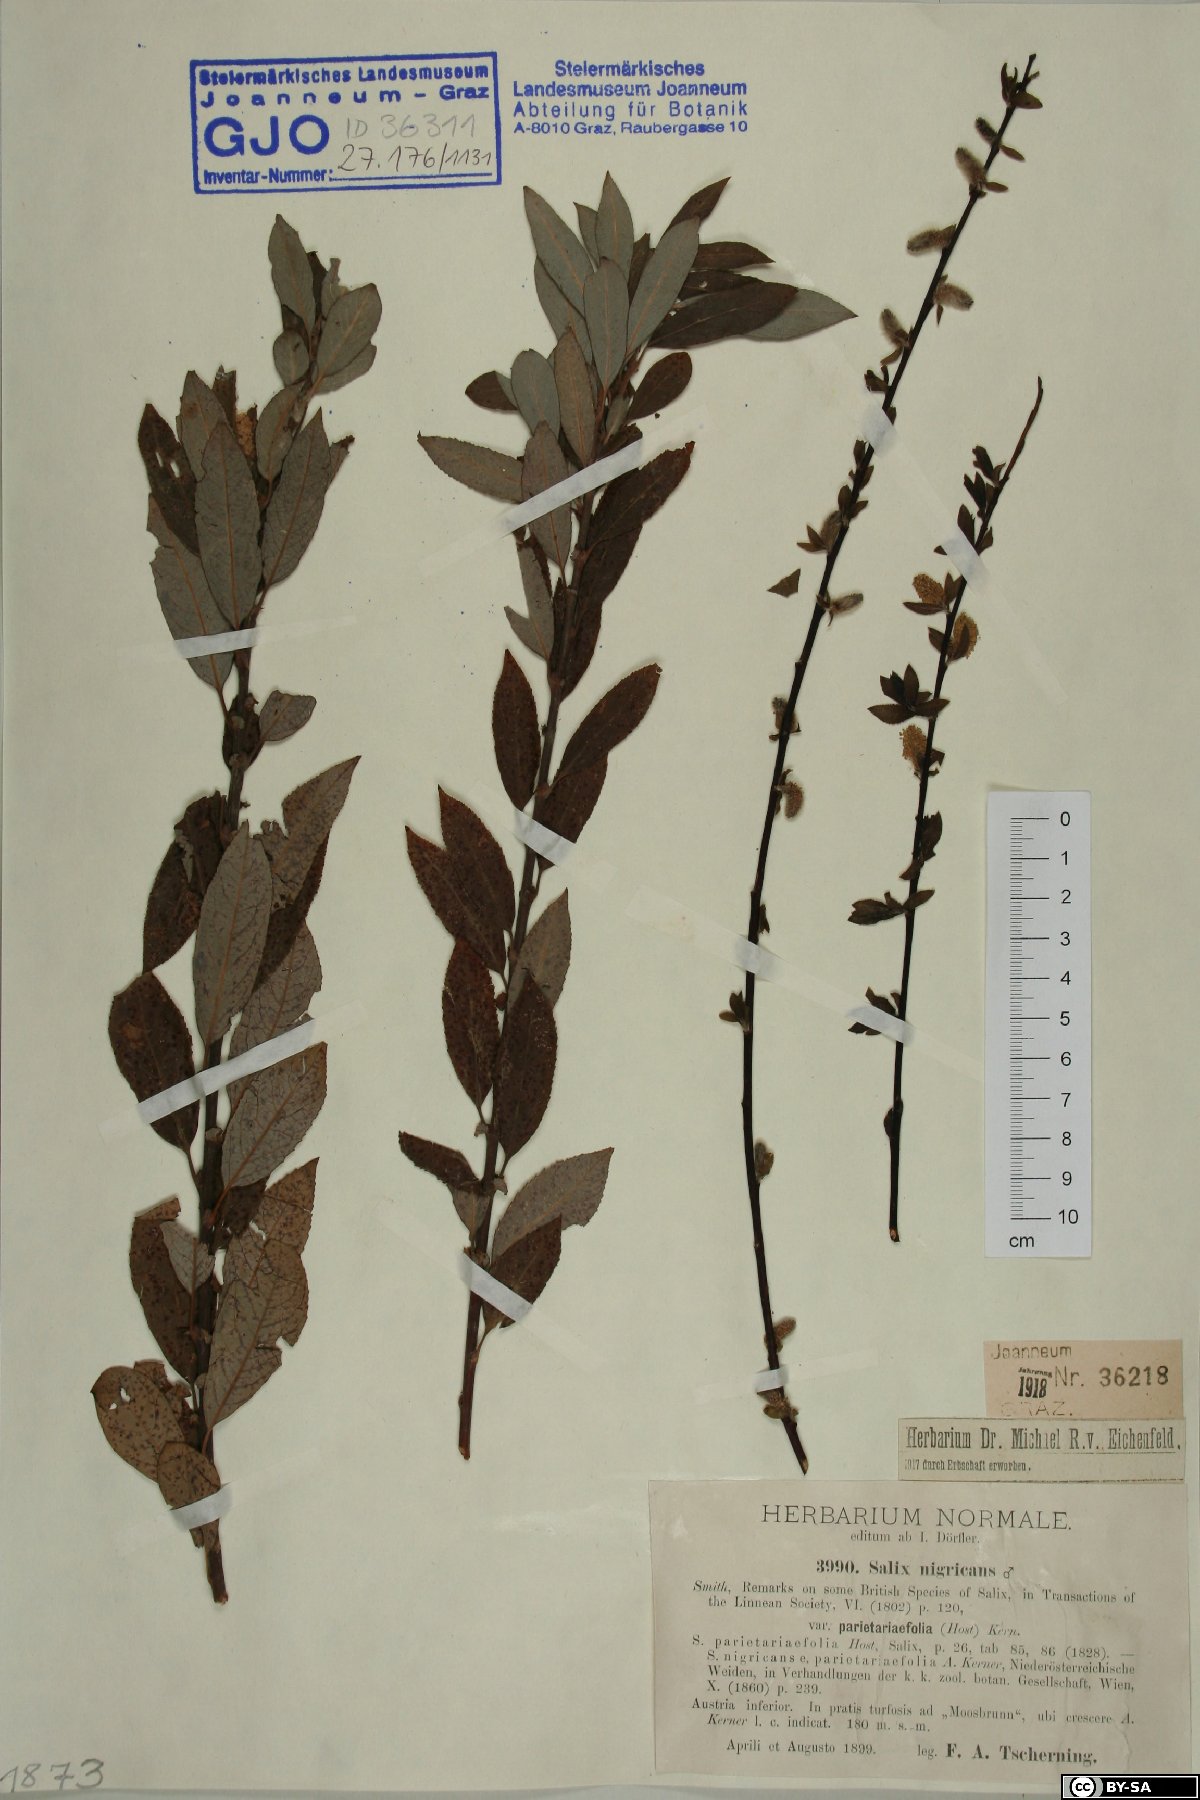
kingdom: Plantae
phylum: Tracheophyta
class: Magnoliopsida
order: Malpighiales
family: Salicaceae
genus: Salix
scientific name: Salix myrsinifolia
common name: Dark-leaved willow
